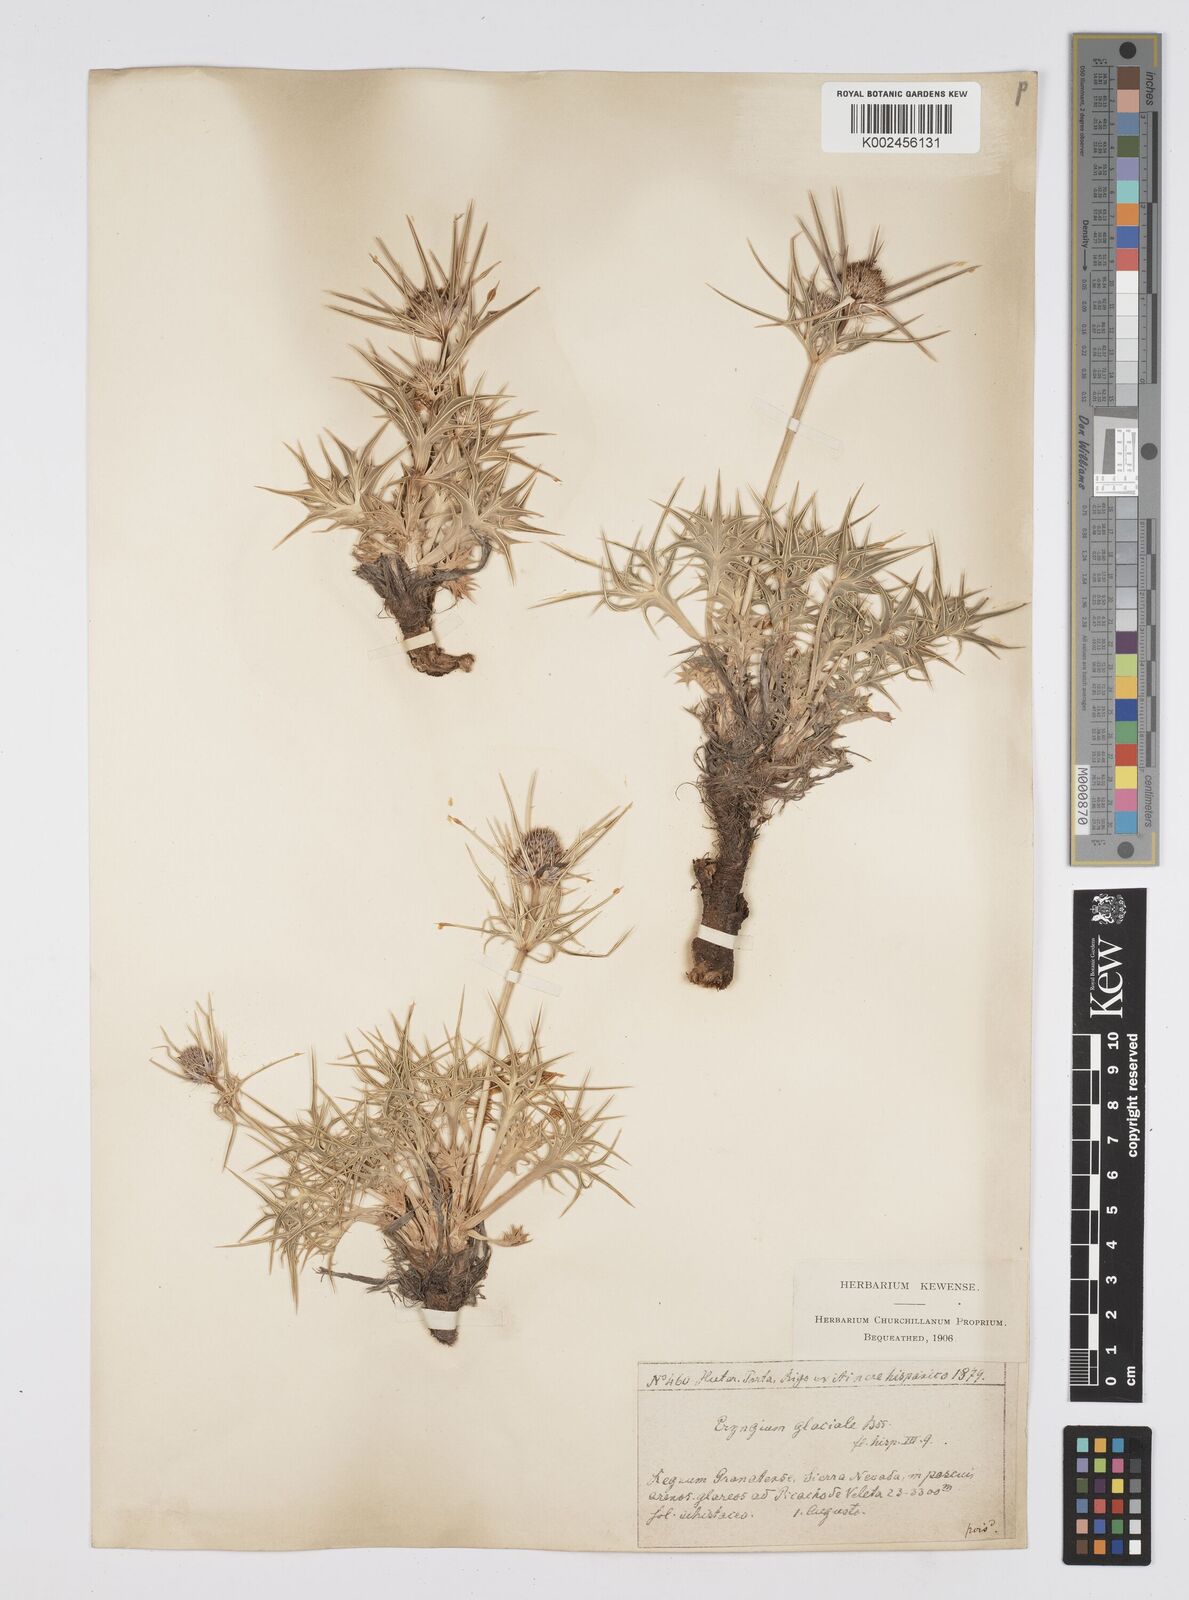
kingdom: Plantae
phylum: Tracheophyta
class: Magnoliopsida
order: Apiales
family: Apiaceae
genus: Eryngium
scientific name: Eryngium glaciale
